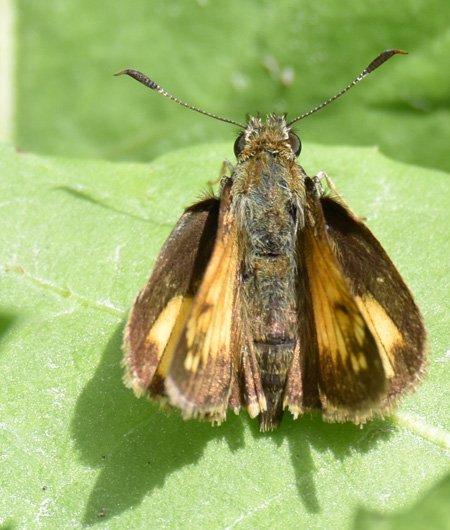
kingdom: Animalia
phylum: Arthropoda
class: Insecta
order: Lepidoptera
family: Hesperiidae
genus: Lon
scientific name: Lon hobomok
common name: Hobomok Skipper
